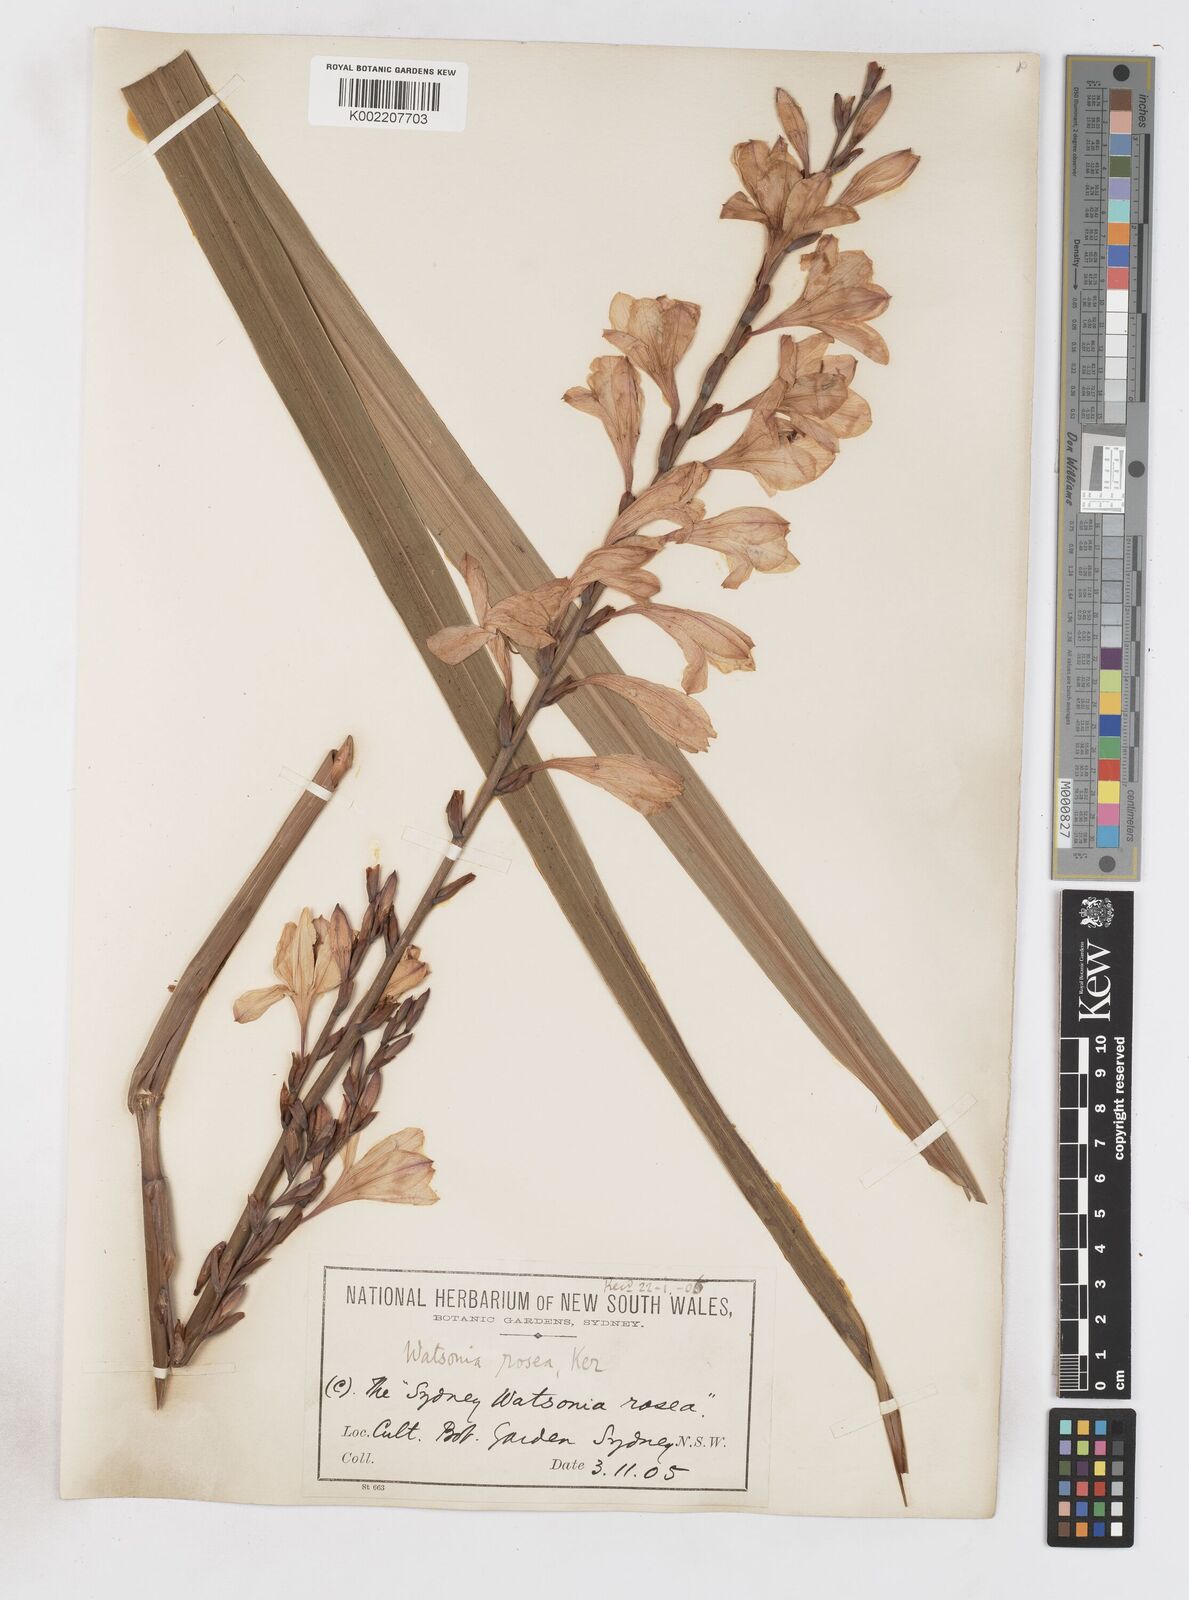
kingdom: Plantae
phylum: Tracheophyta
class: Liliopsida
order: Asparagales
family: Iridaceae
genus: Watsonia
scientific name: Watsonia borbonica
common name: Bugle-lily
